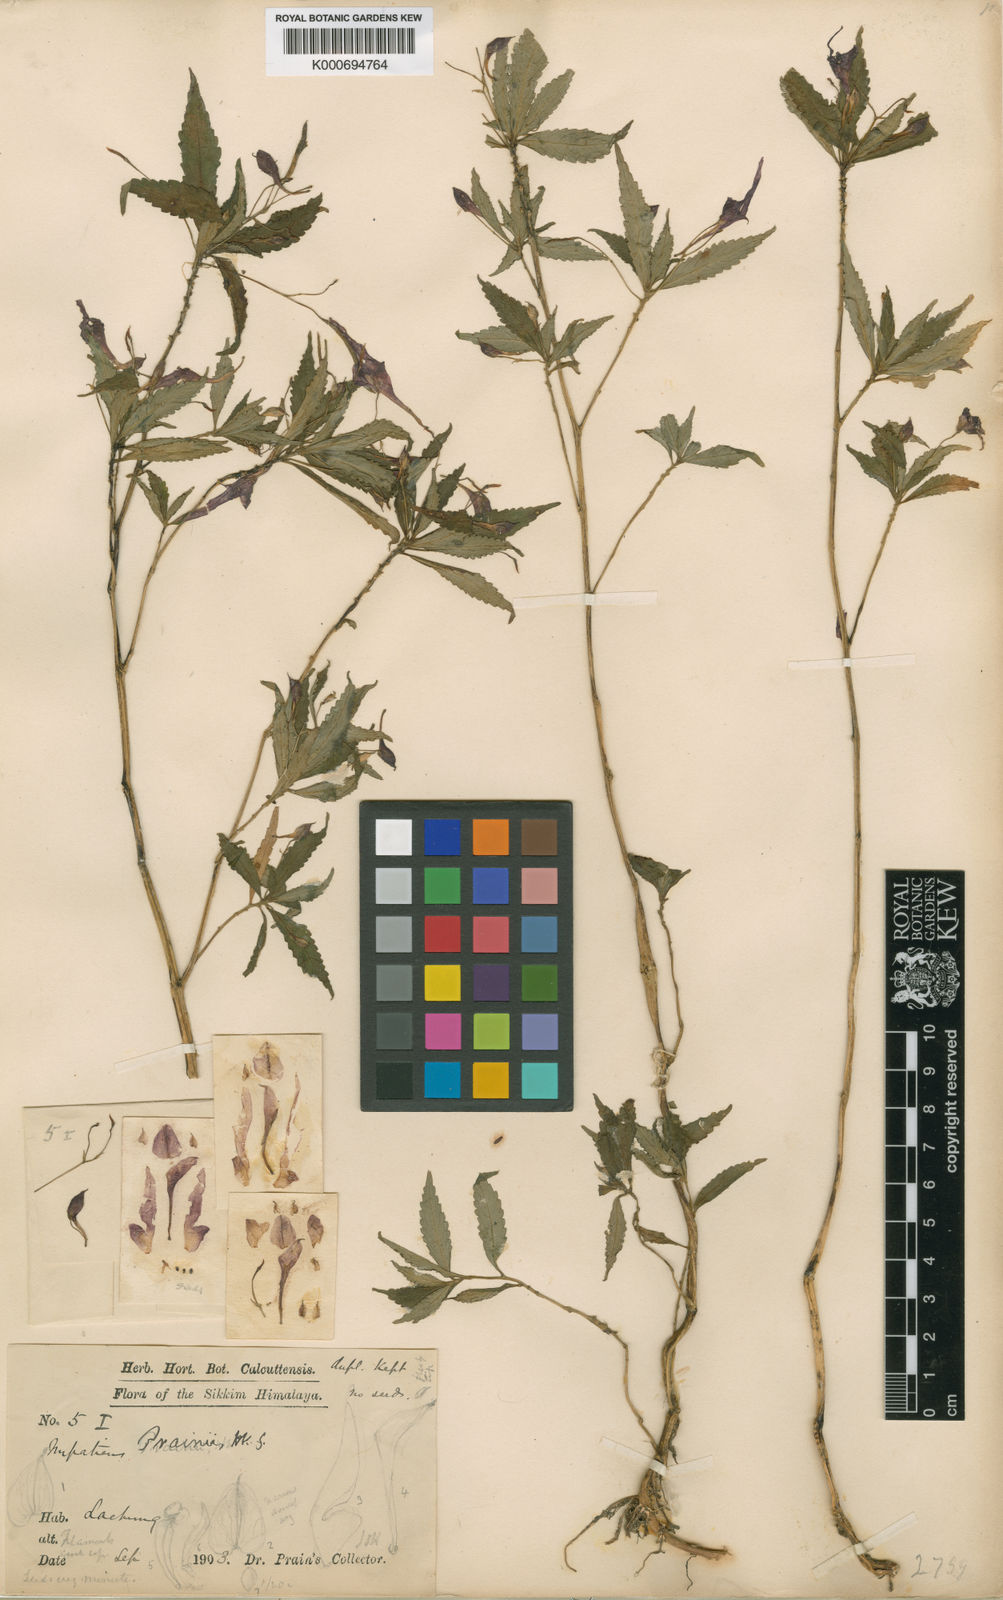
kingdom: Plantae
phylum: Tracheophyta
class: Magnoliopsida
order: Ericales
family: Balsaminaceae
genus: Impatiens
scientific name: Impatiens prainii
